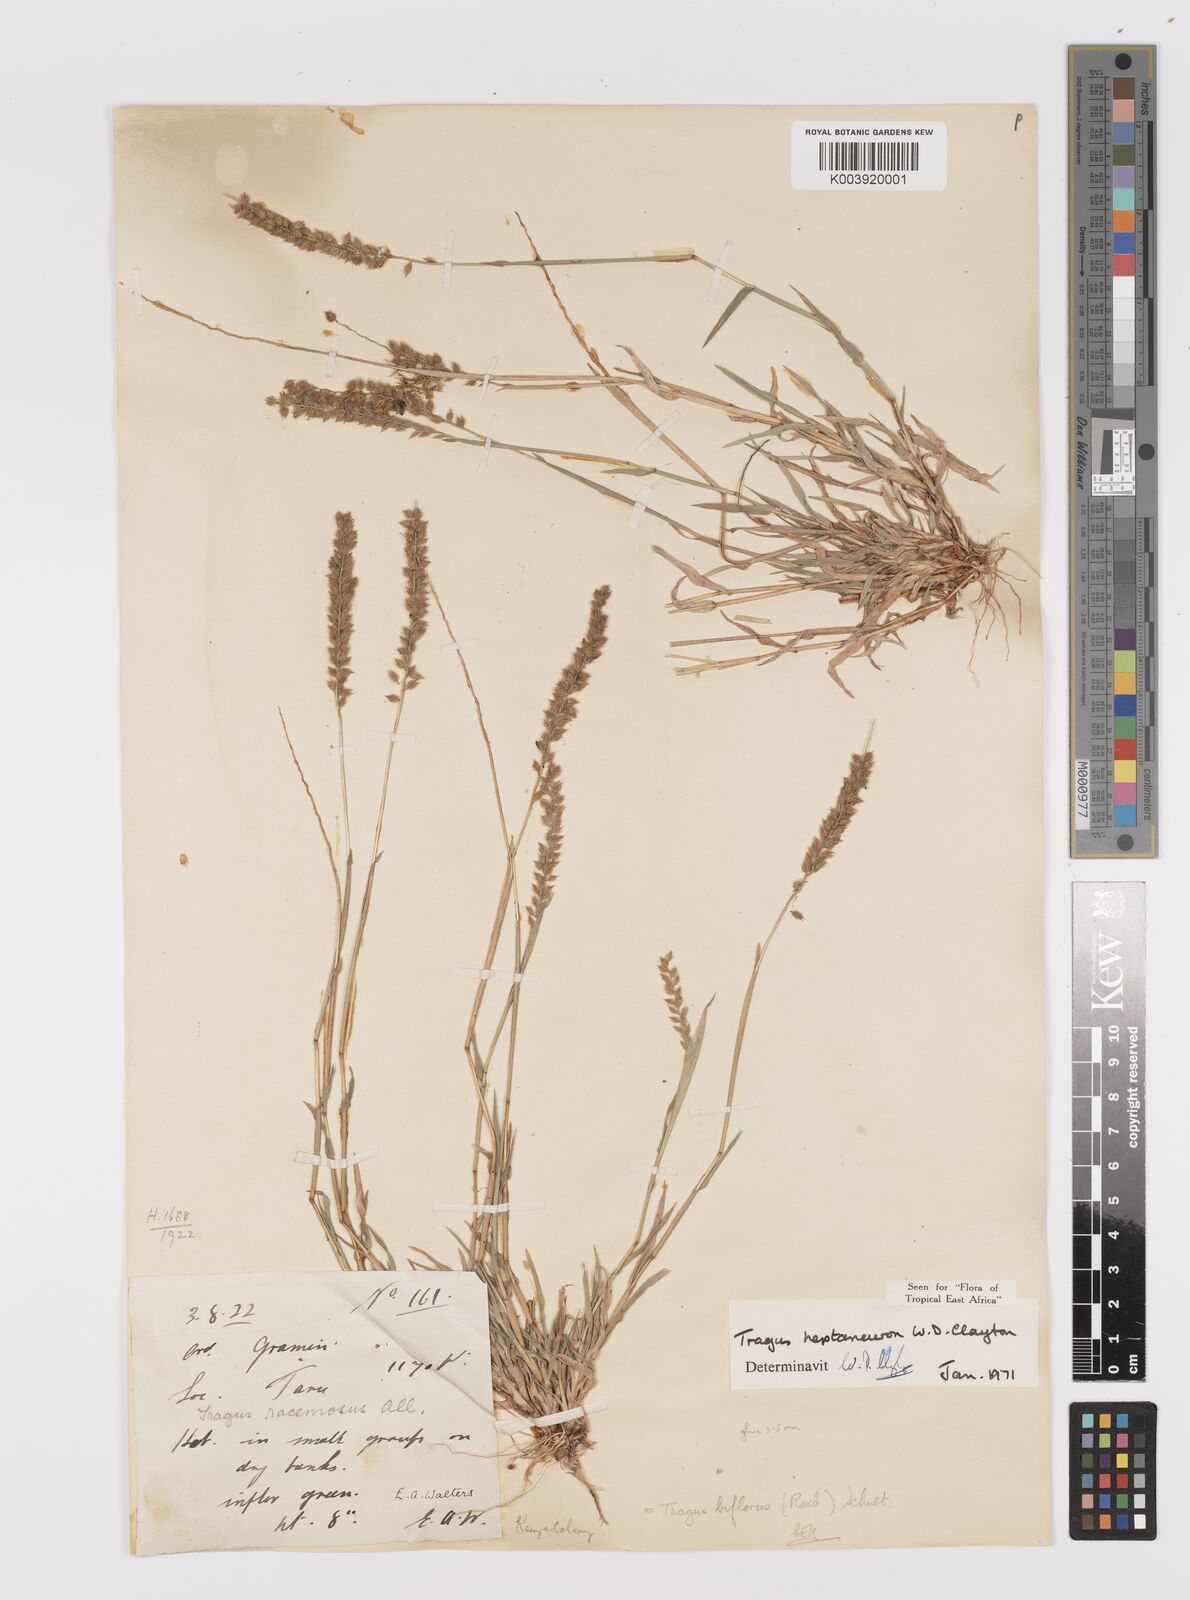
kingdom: Plantae
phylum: Tracheophyta
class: Liliopsida
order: Poales
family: Poaceae
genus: Tragus
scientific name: Tragus heptaneuron
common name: Kenya bur grass
